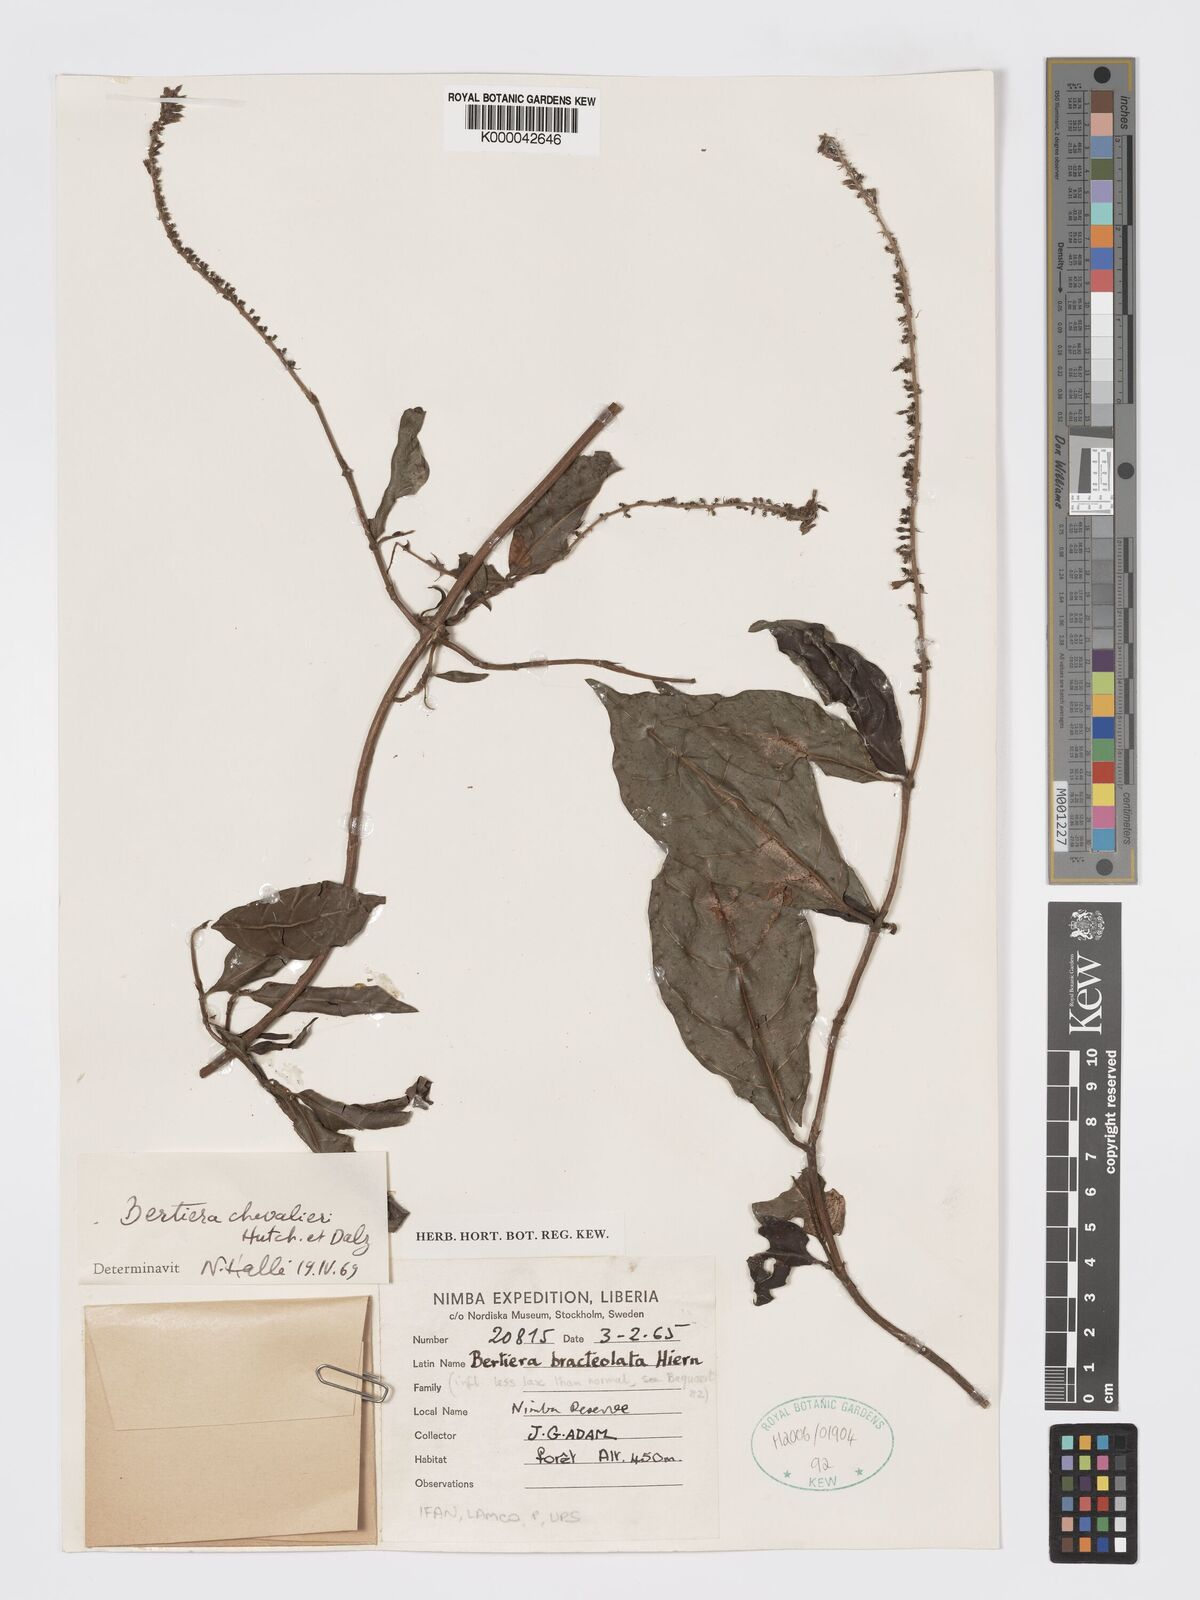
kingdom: Plantae
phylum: Tracheophyta
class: Magnoliopsida
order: Gentianales
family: Rubiaceae
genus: Bertiera
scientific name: Bertiera chevalieri
